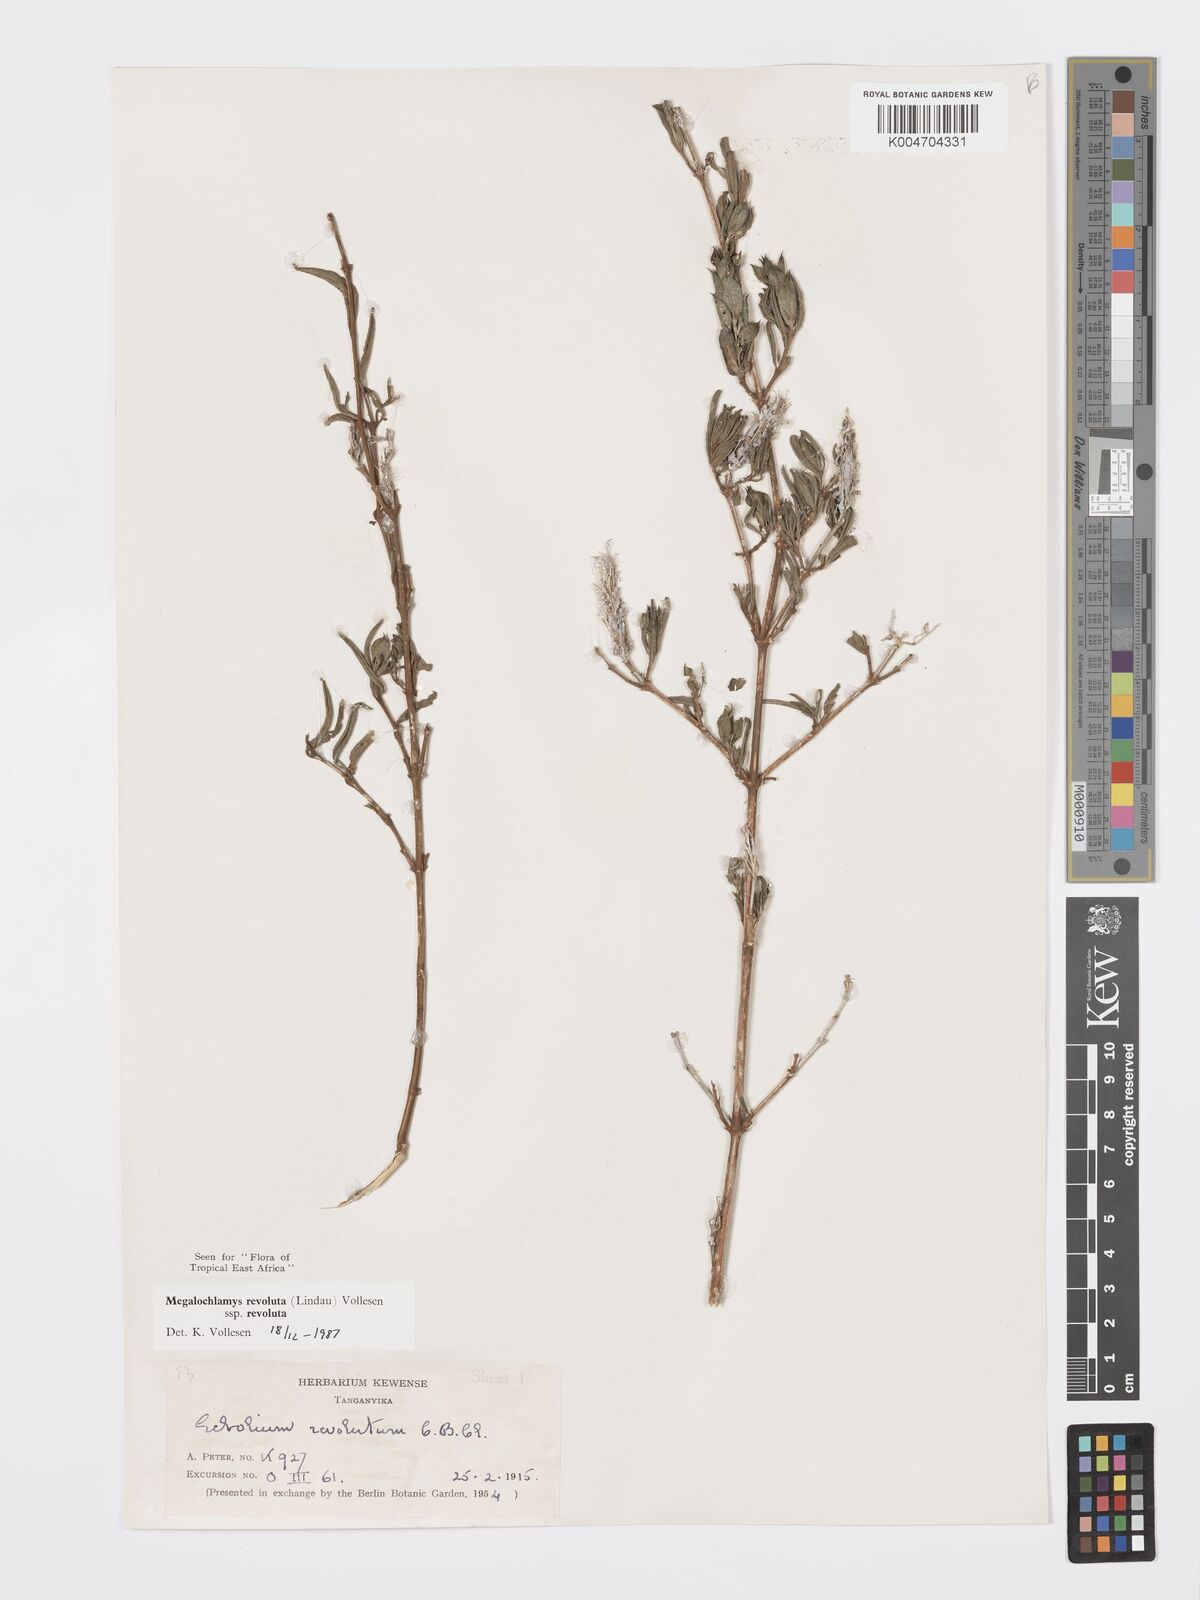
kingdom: Plantae
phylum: Tracheophyta
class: Magnoliopsida
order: Lamiales
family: Acanthaceae
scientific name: Acanthaceae
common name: Acanthaceae
